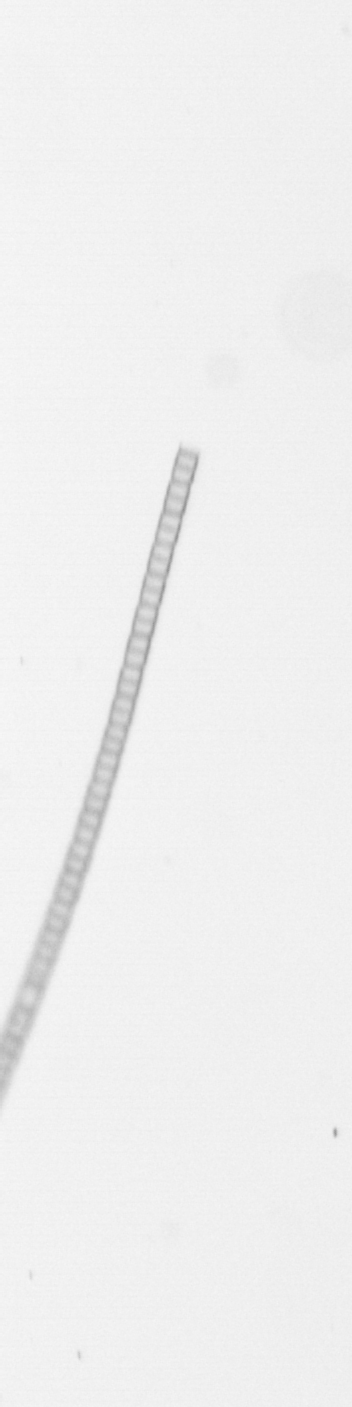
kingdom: Chromista
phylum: Ochrophyta
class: Bacillariophyceae
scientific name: Bacillariophyceae
